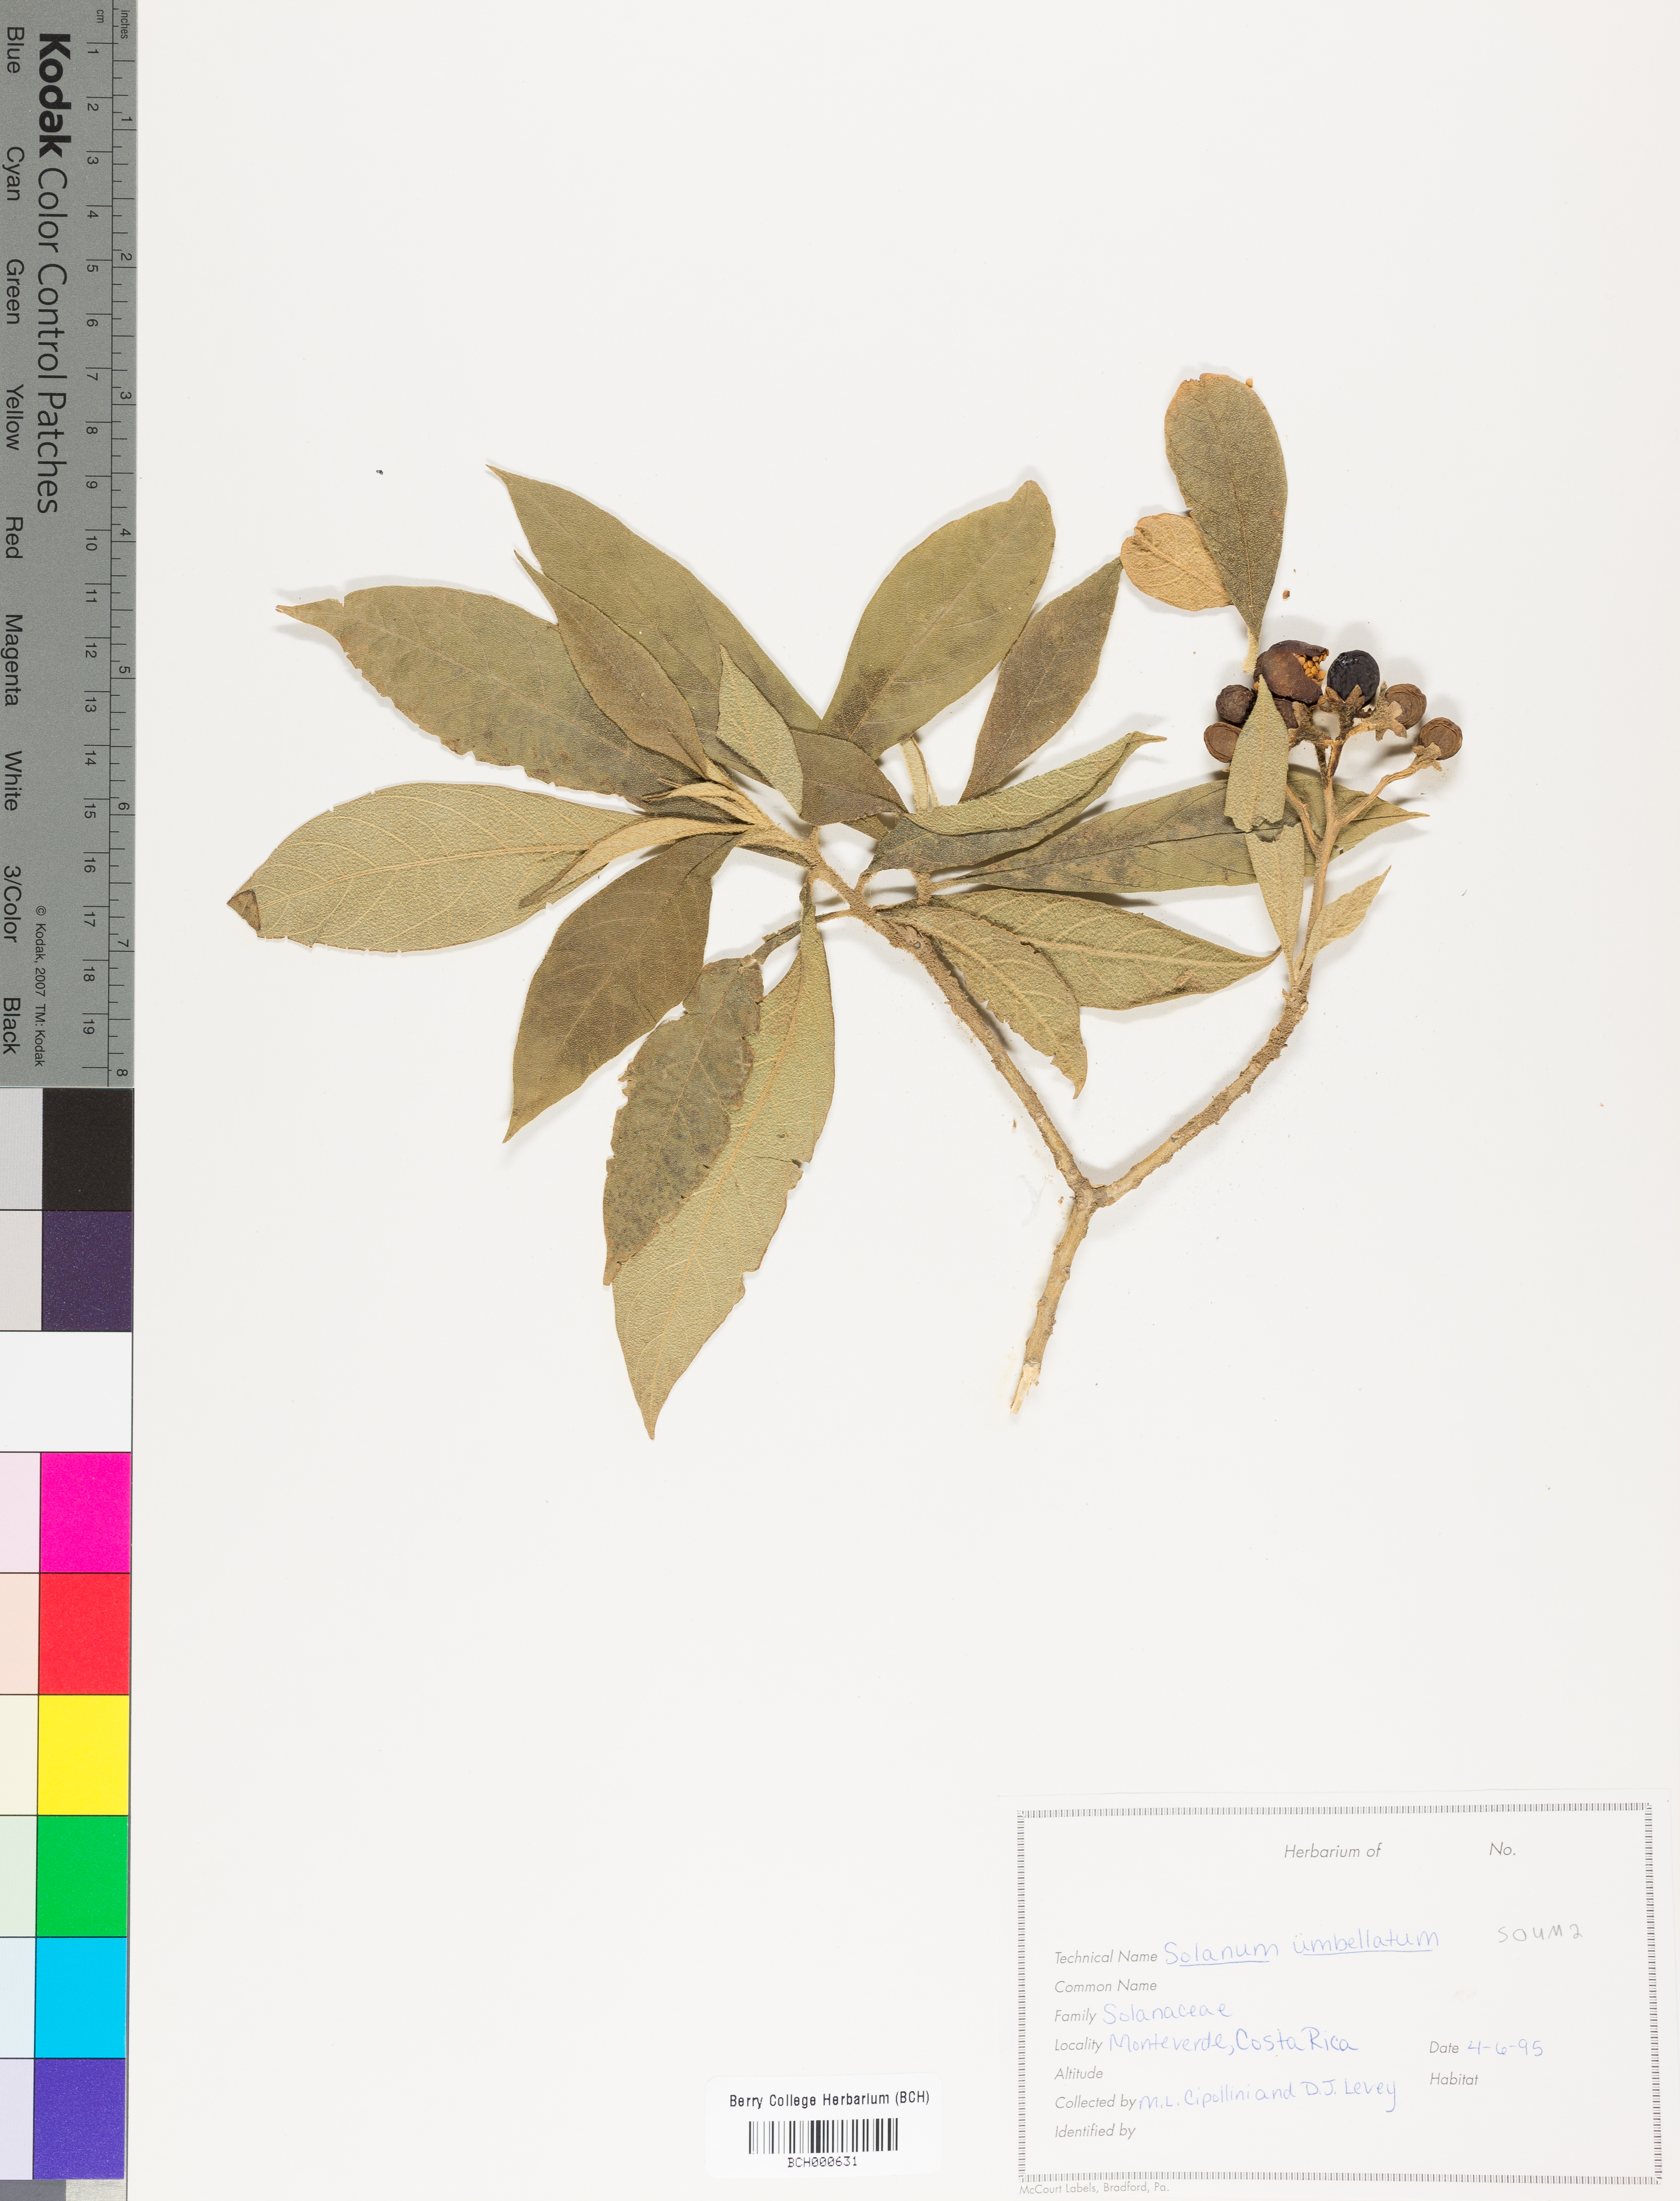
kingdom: Plantae
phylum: Tracheophyta
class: Magnoliopsida
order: Solanales
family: Solanaceae
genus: Lycianthes
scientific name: Lycianthes pauciflora
